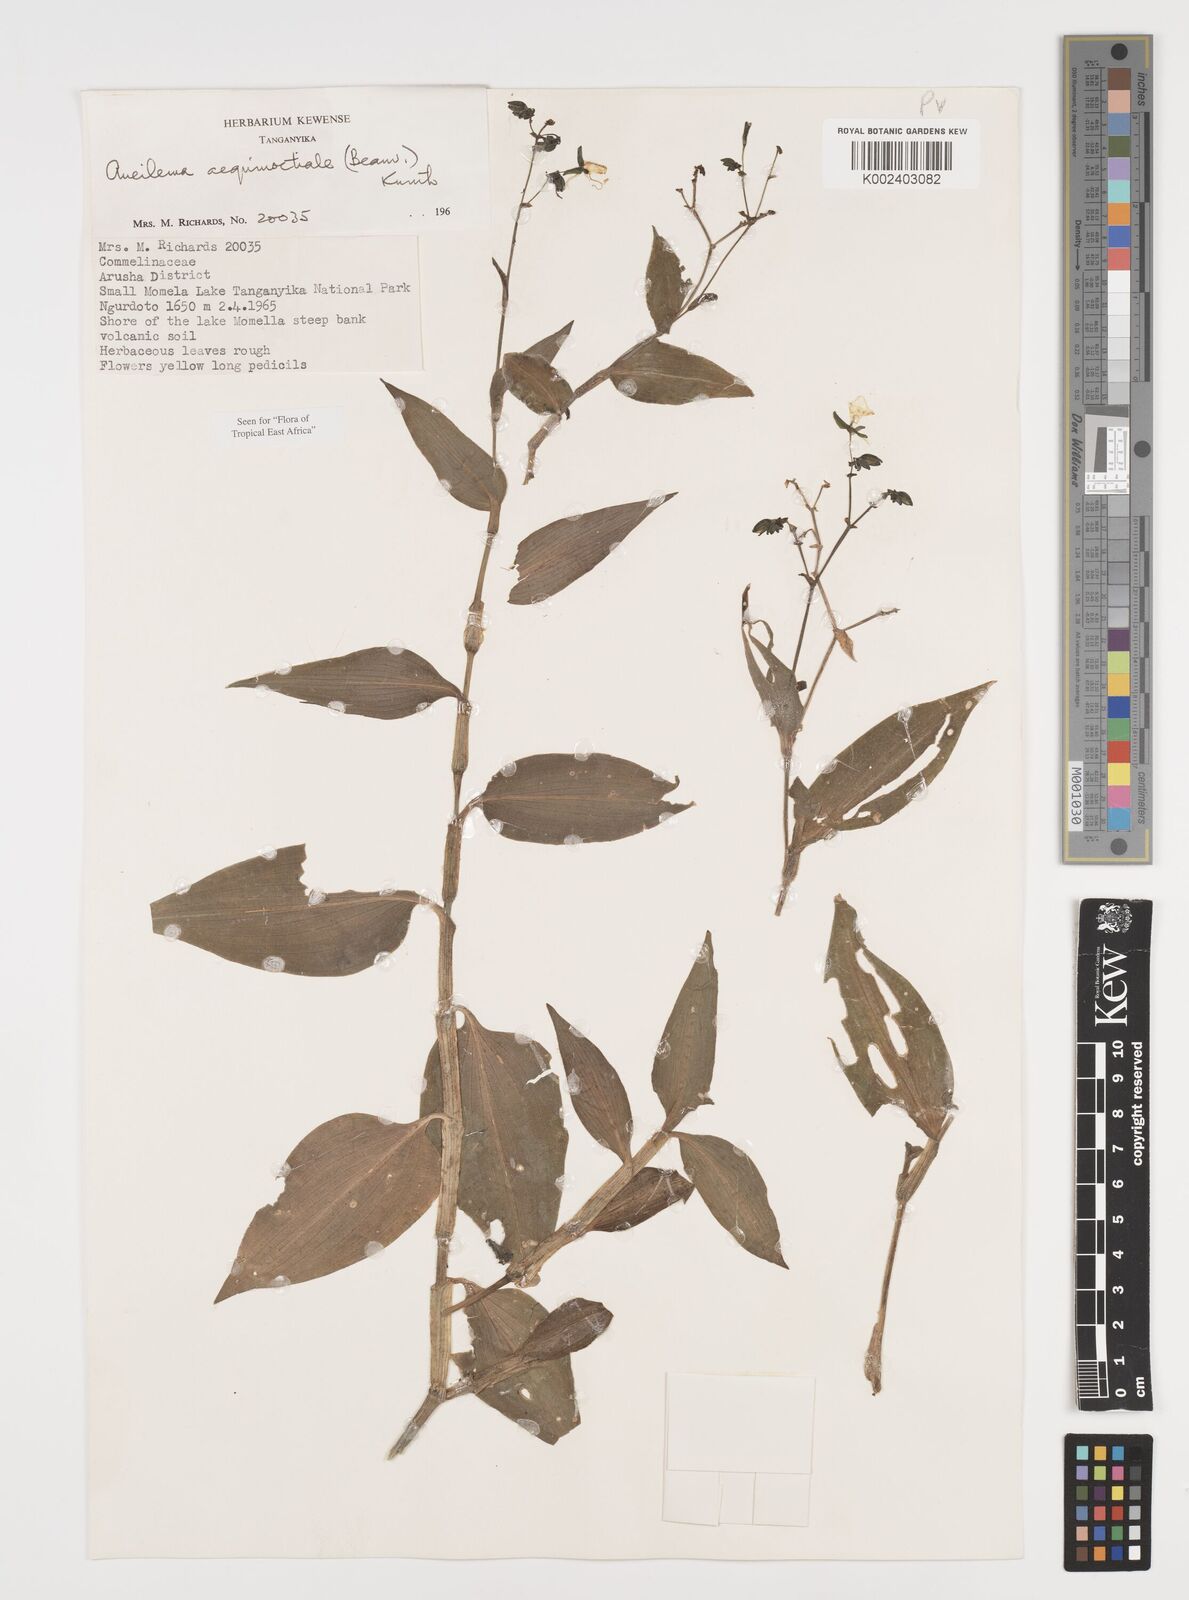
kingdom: Plantae
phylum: Tracheophyta
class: Liliopsida
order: Commelinales
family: Commelinaceae
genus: Aneilema
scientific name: Aneilema aequinoctiale
